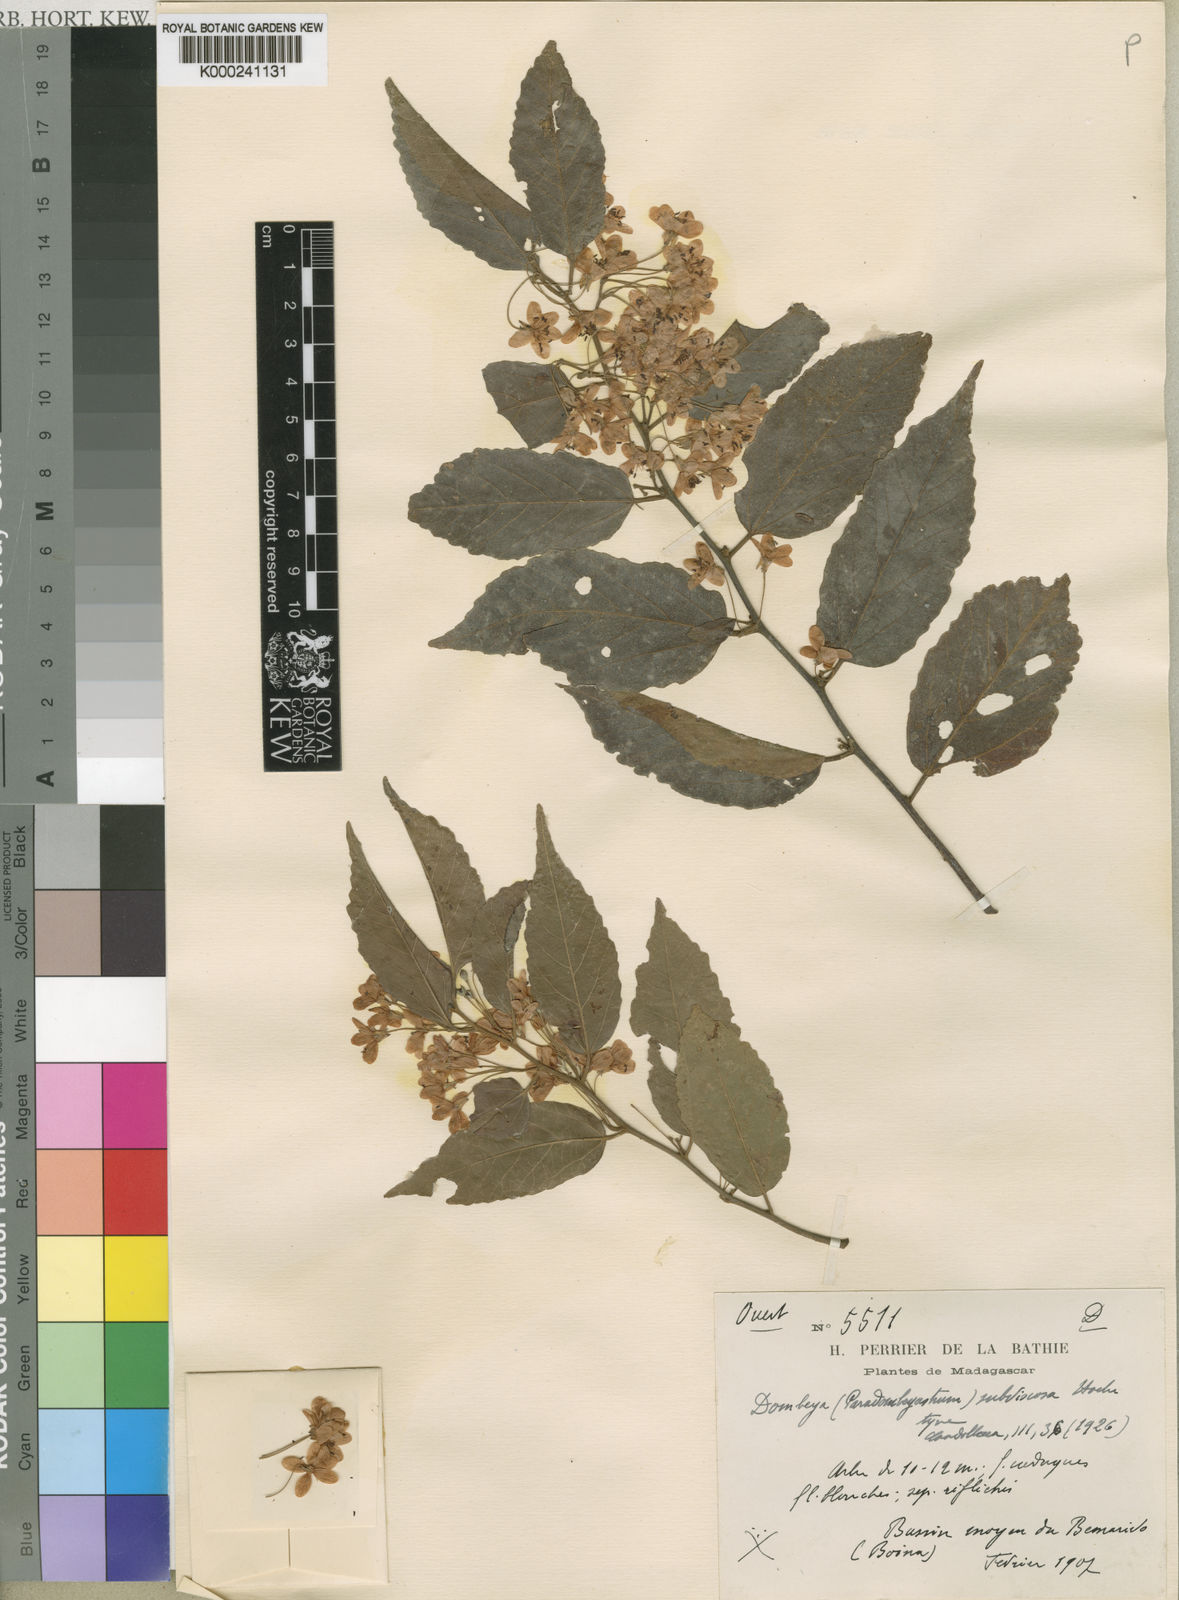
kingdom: Plantae
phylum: Tracheophyta
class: Magnoliopsida
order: Malvales
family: Malvaceae
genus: Dombeya
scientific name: Dombeya subviscosa
